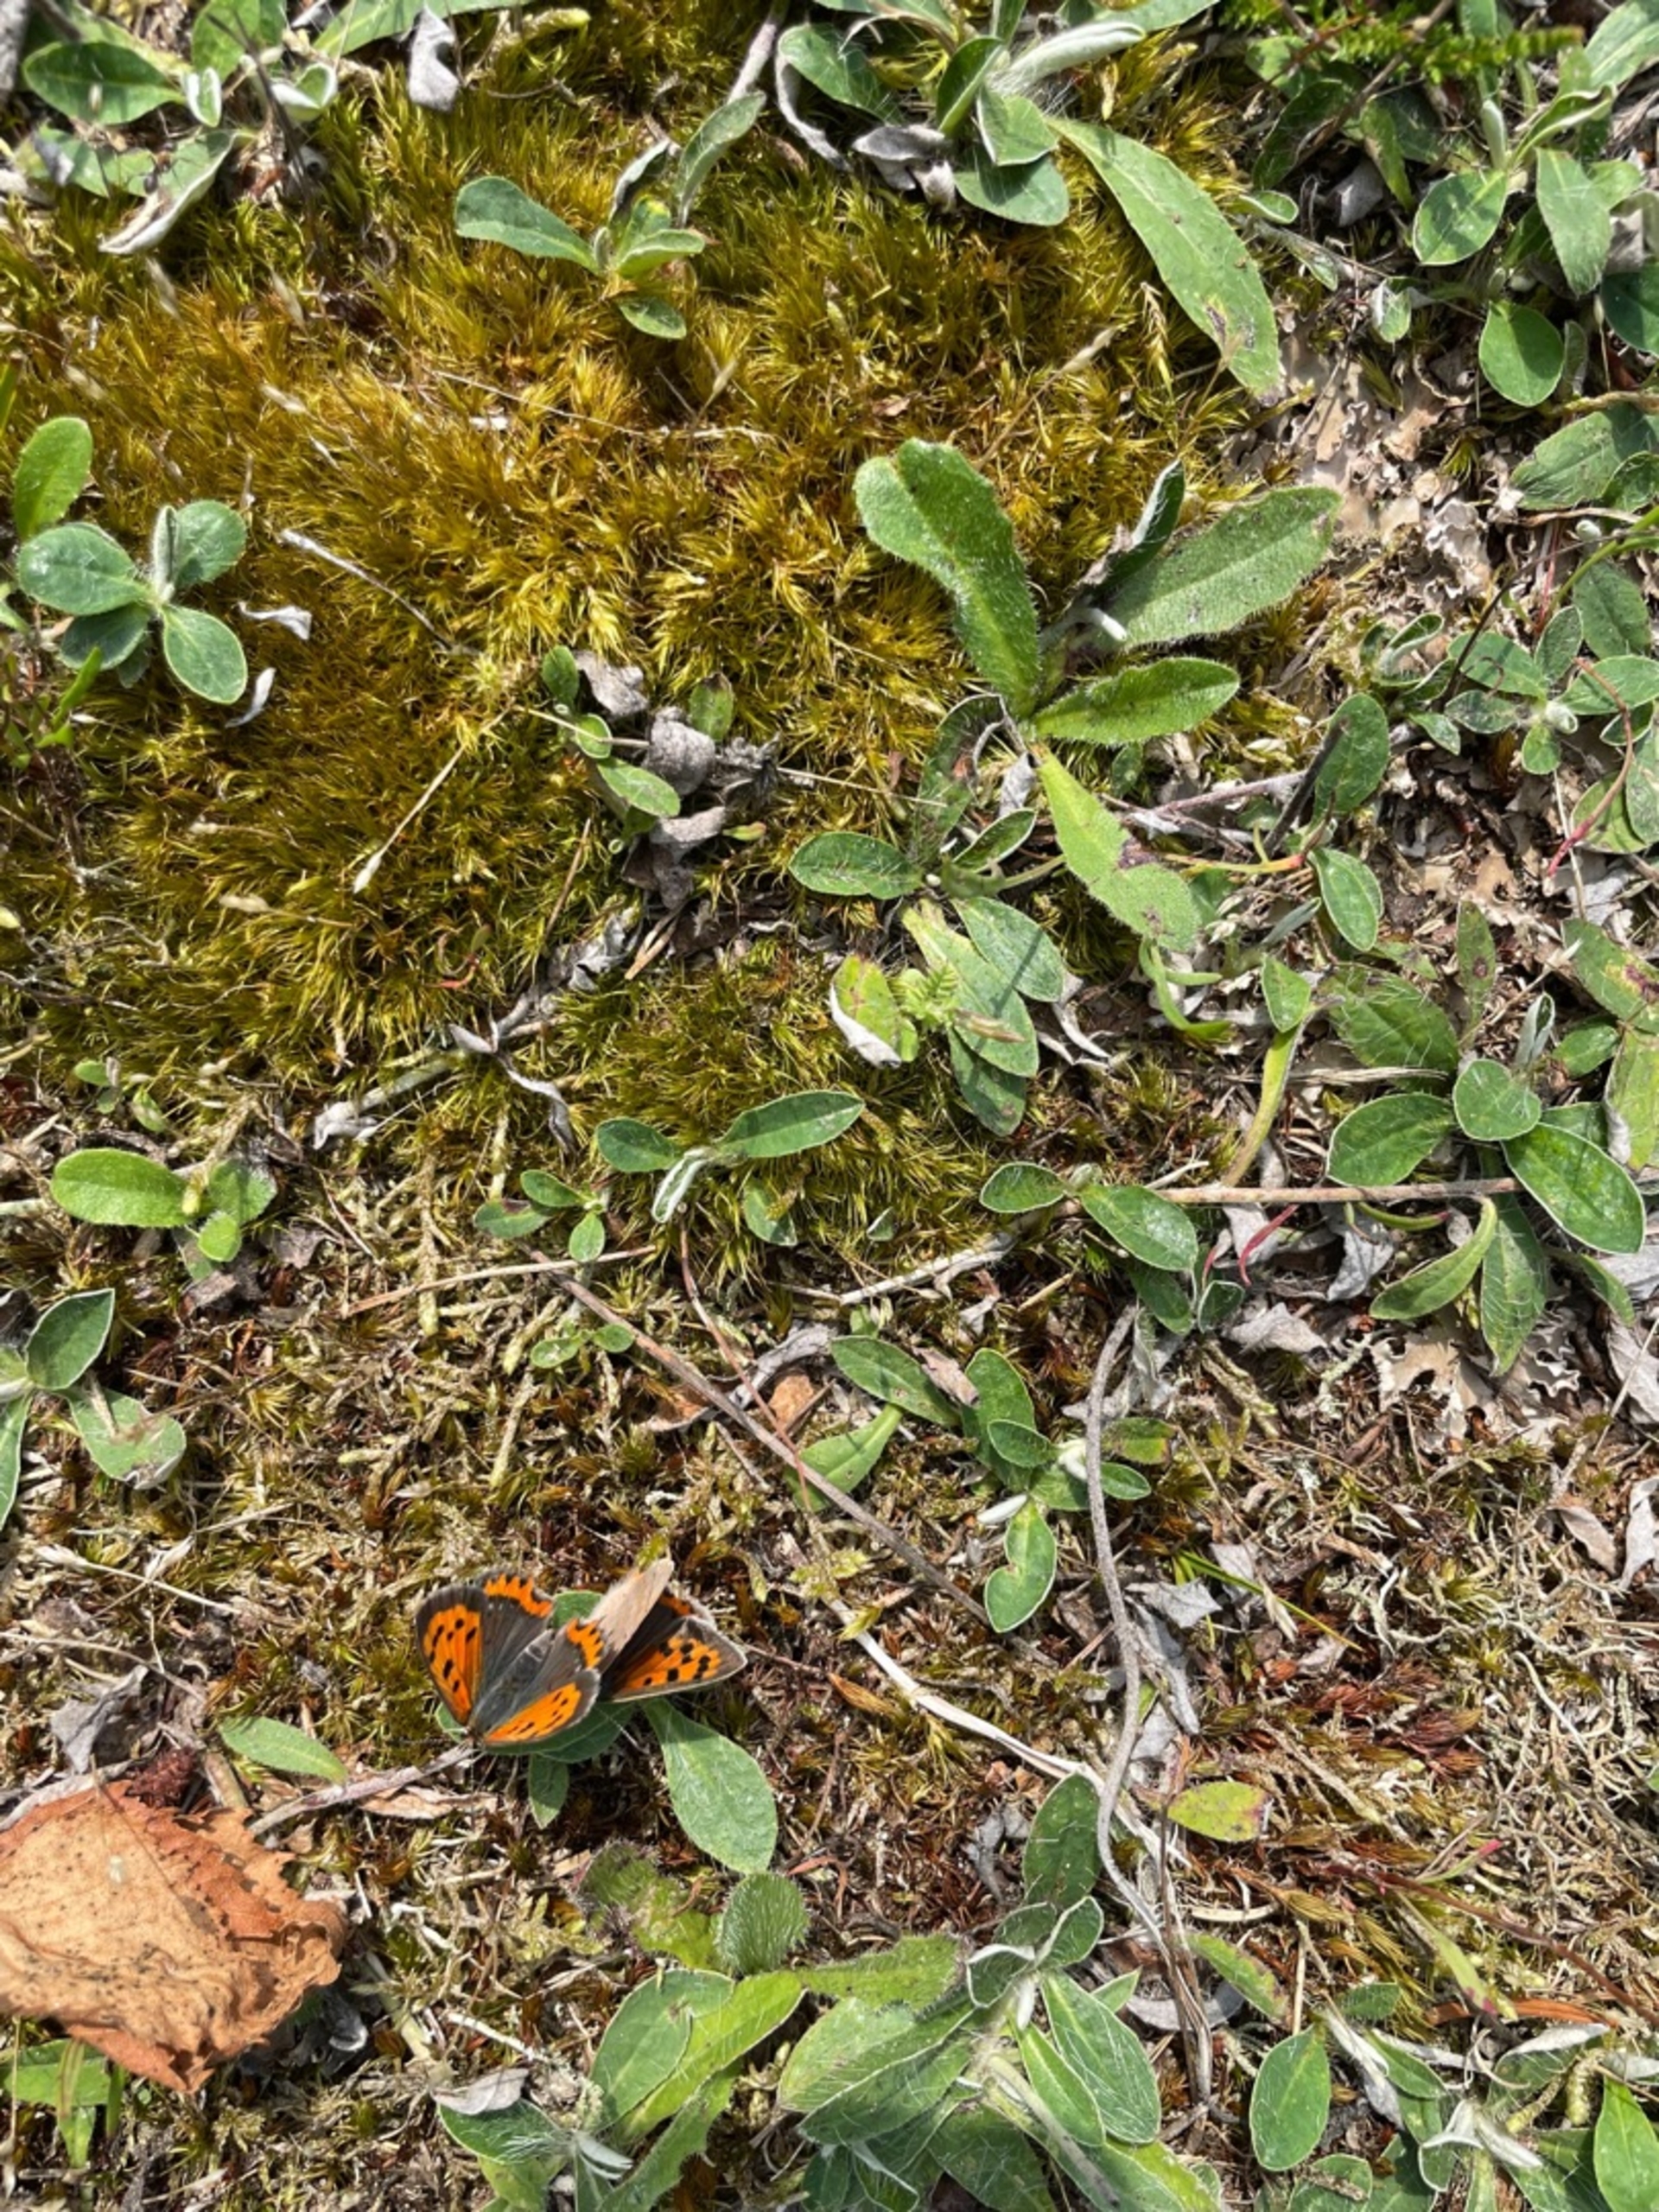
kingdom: Animalia
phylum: Arthropoda
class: Insecta
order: Lepidoptera
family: Lycaenidae
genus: Lycaena
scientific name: Lycaena phlaeas
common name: Lille ildfugl
